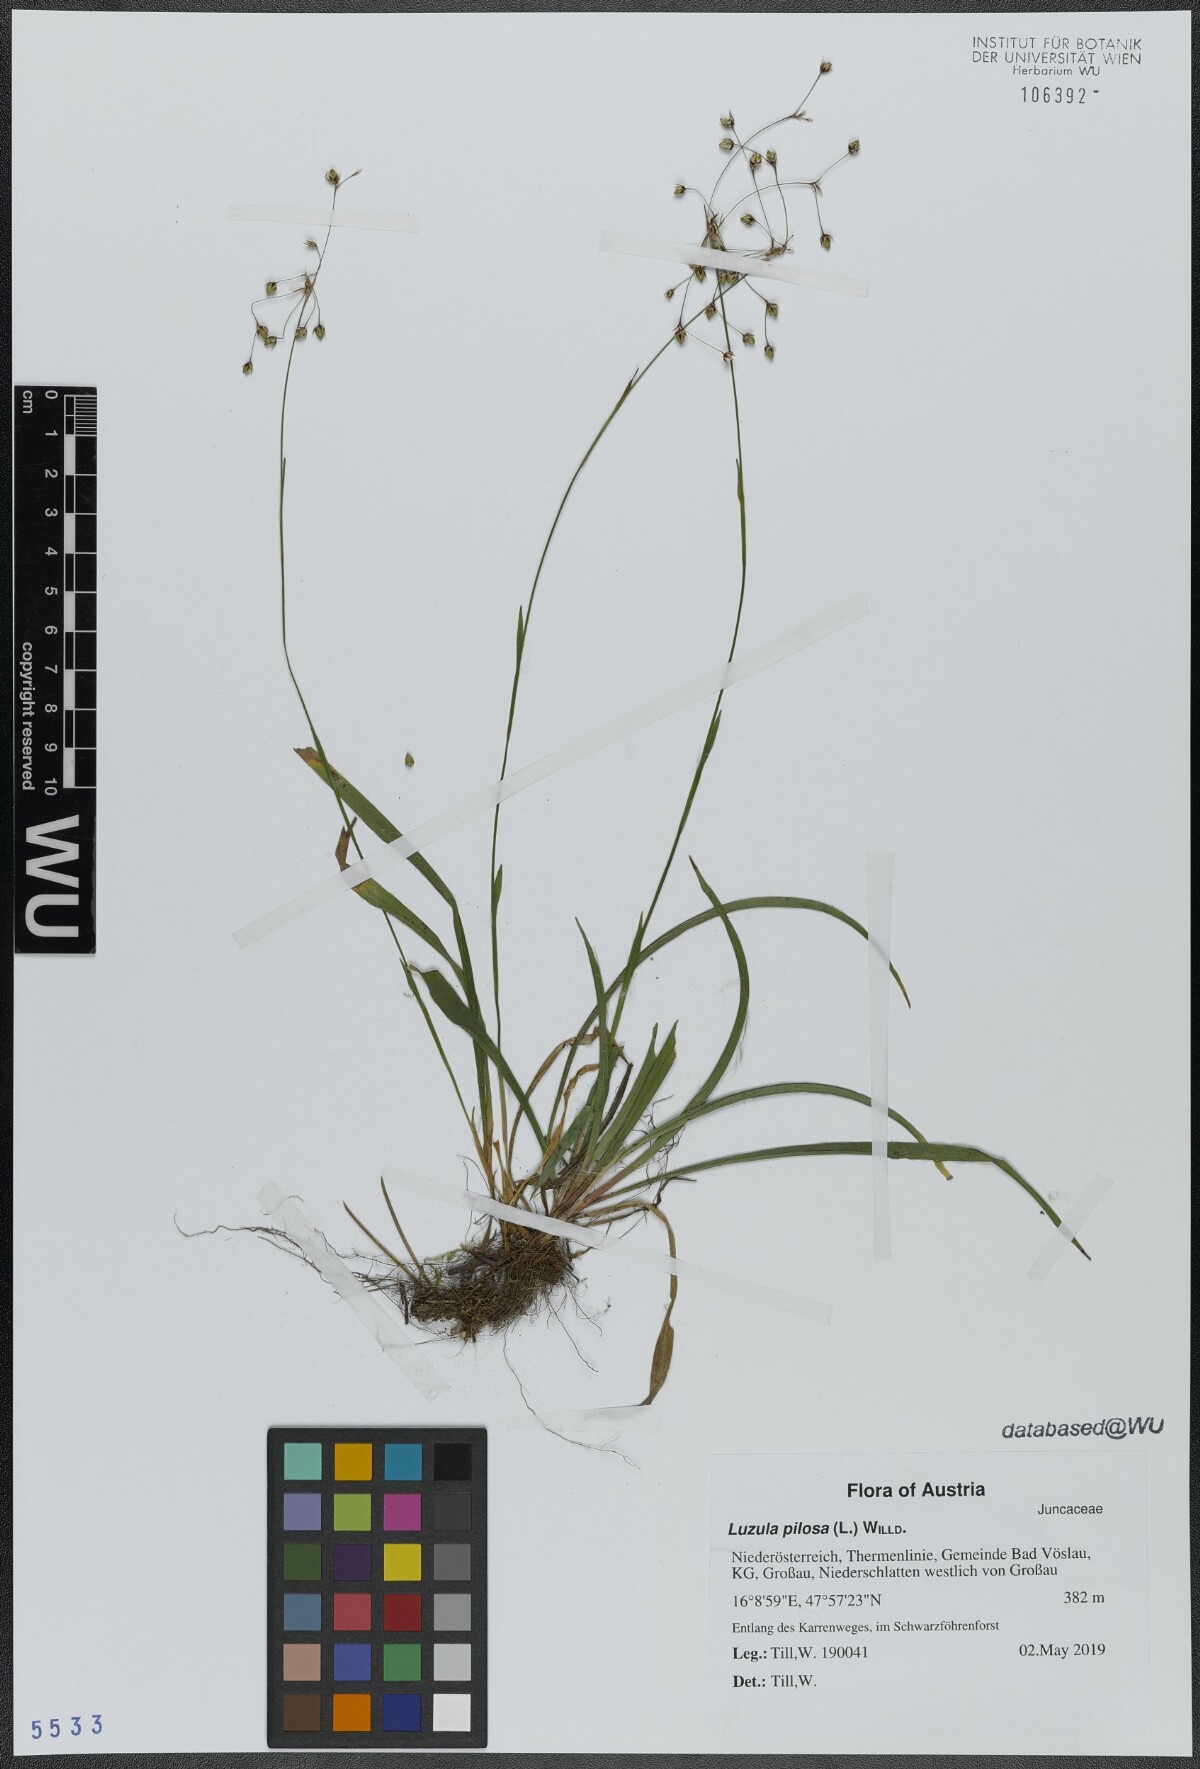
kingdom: Plantae
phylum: Tracheophyta
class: Liliopsida
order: Poales
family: Juncaceae
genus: Luzula
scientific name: Luzula pilosa
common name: Hairy wood-rush
